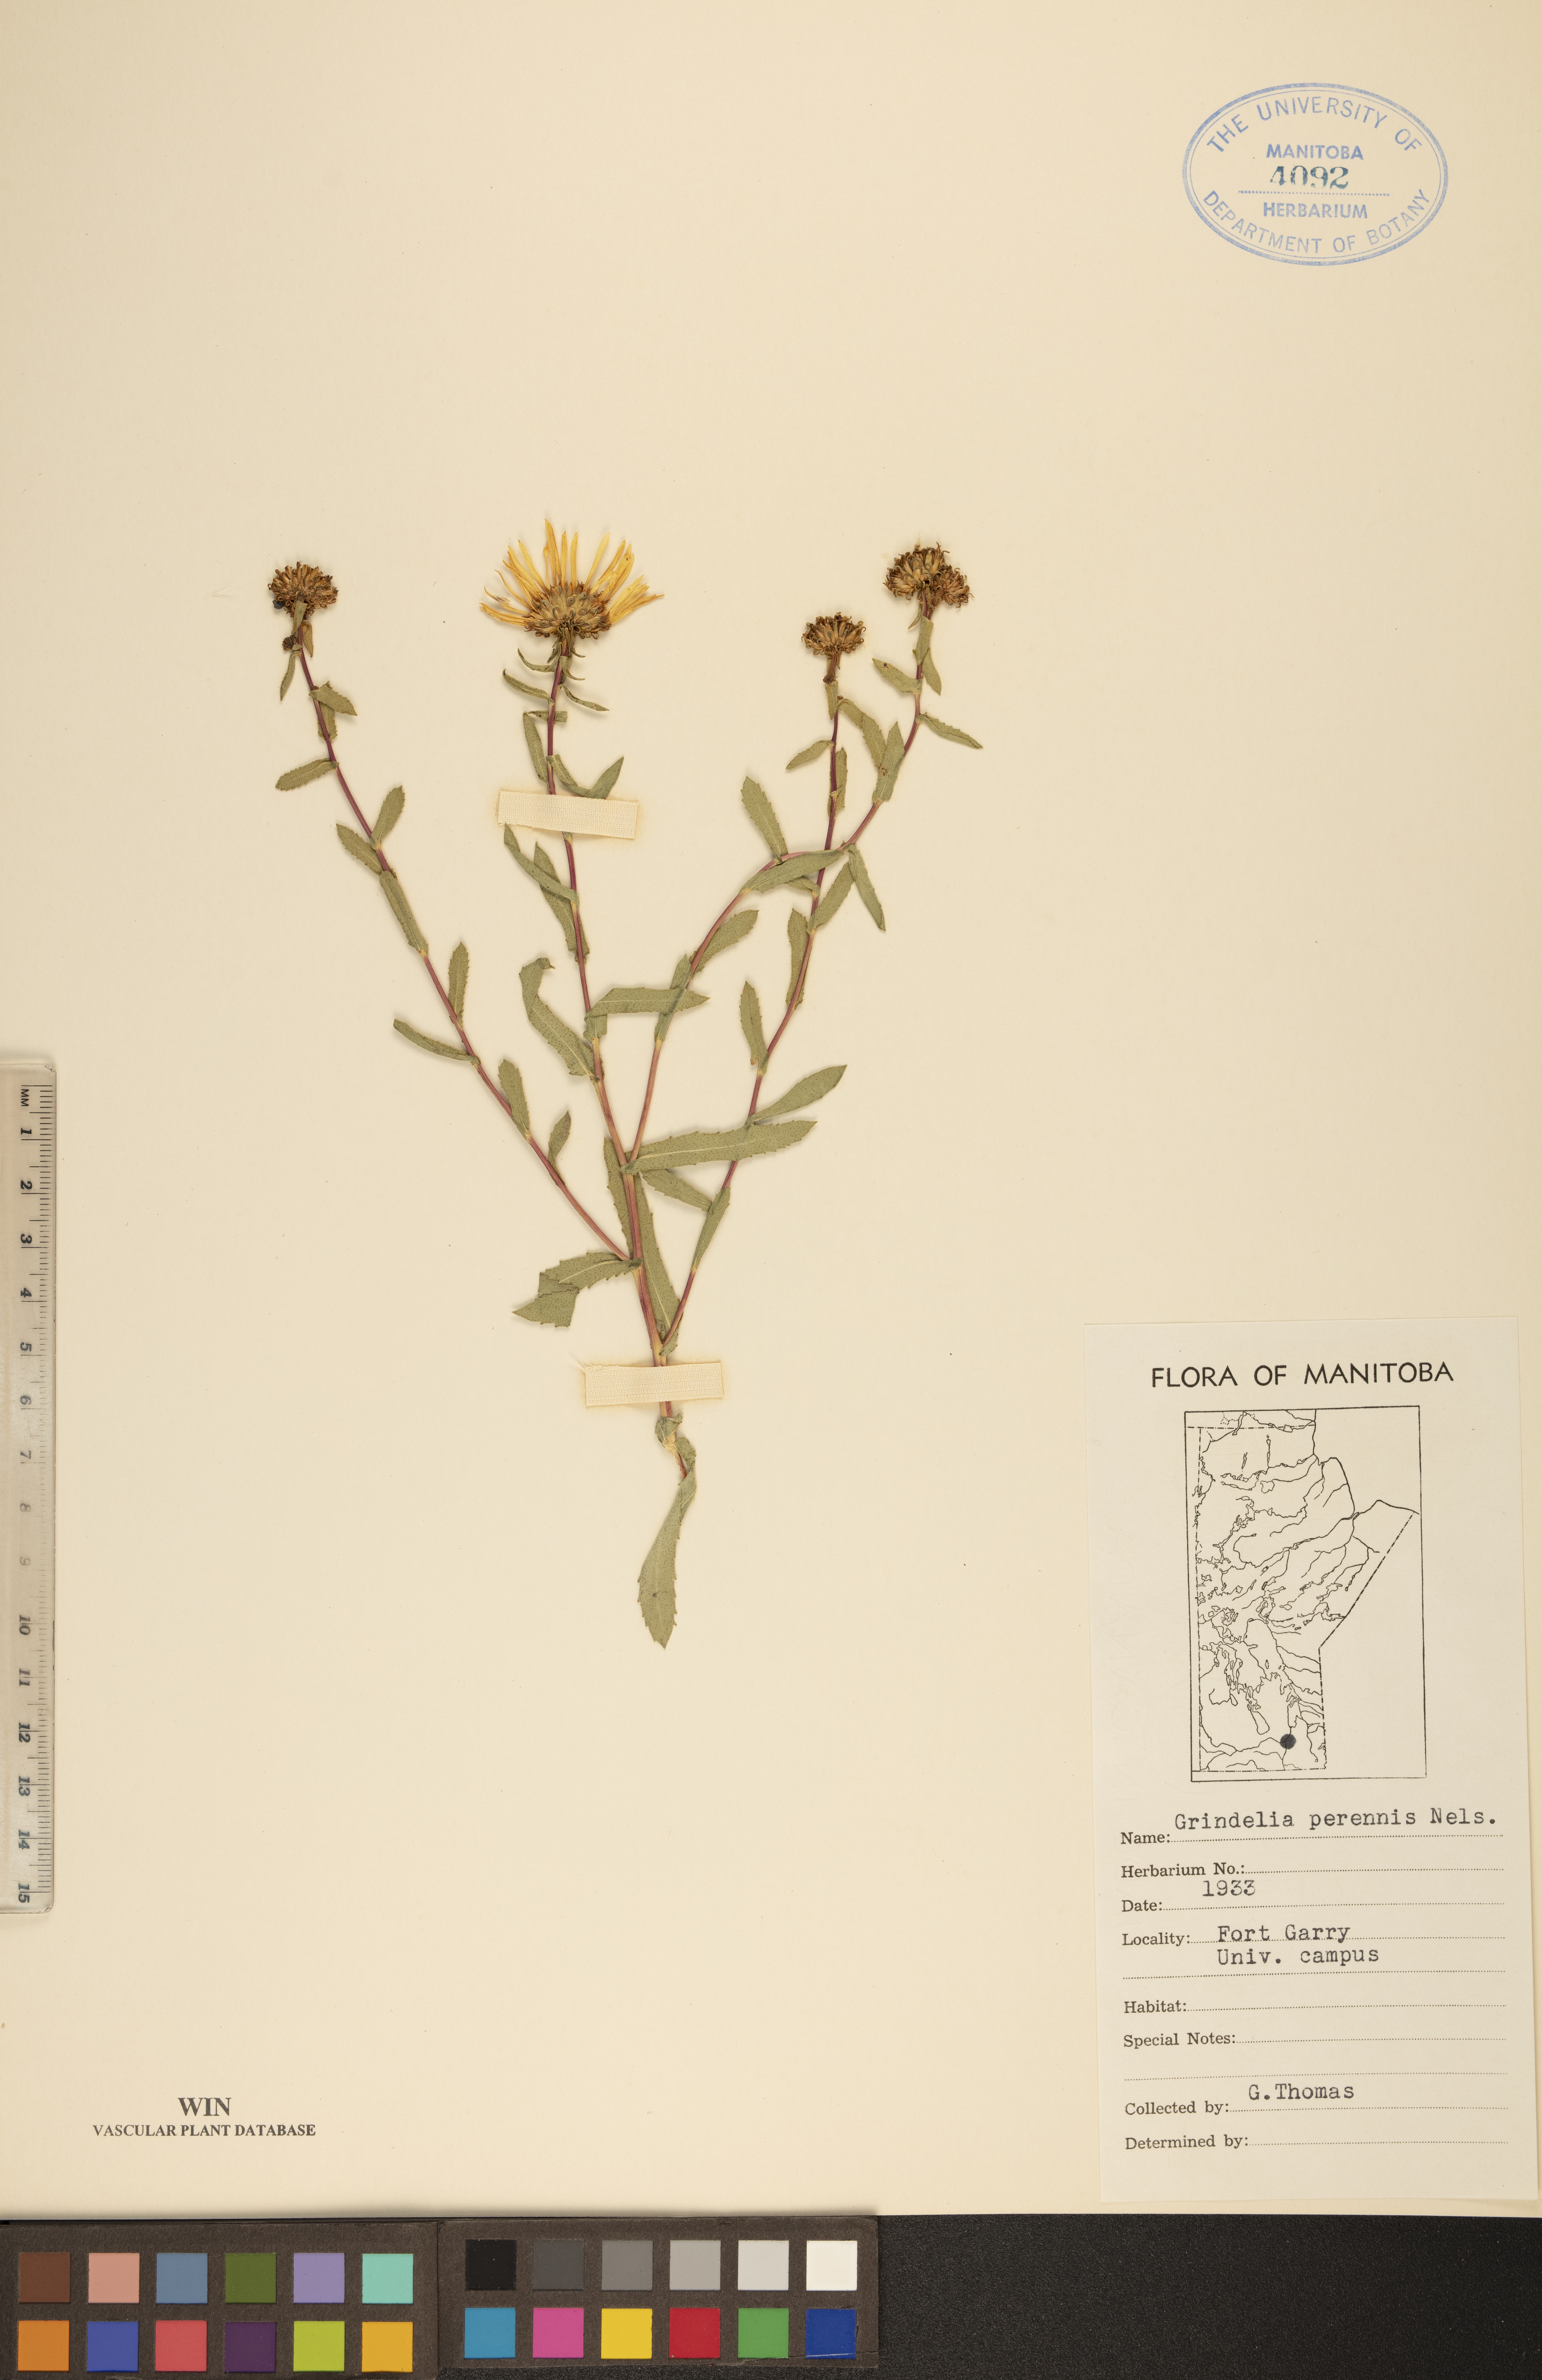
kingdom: Plantae
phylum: Tracheophyta
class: Magnoliopsida
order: Asterales
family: Asteraceae
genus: Grindelia
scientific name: Grindelia hirsutula
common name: Hairy gumweed
